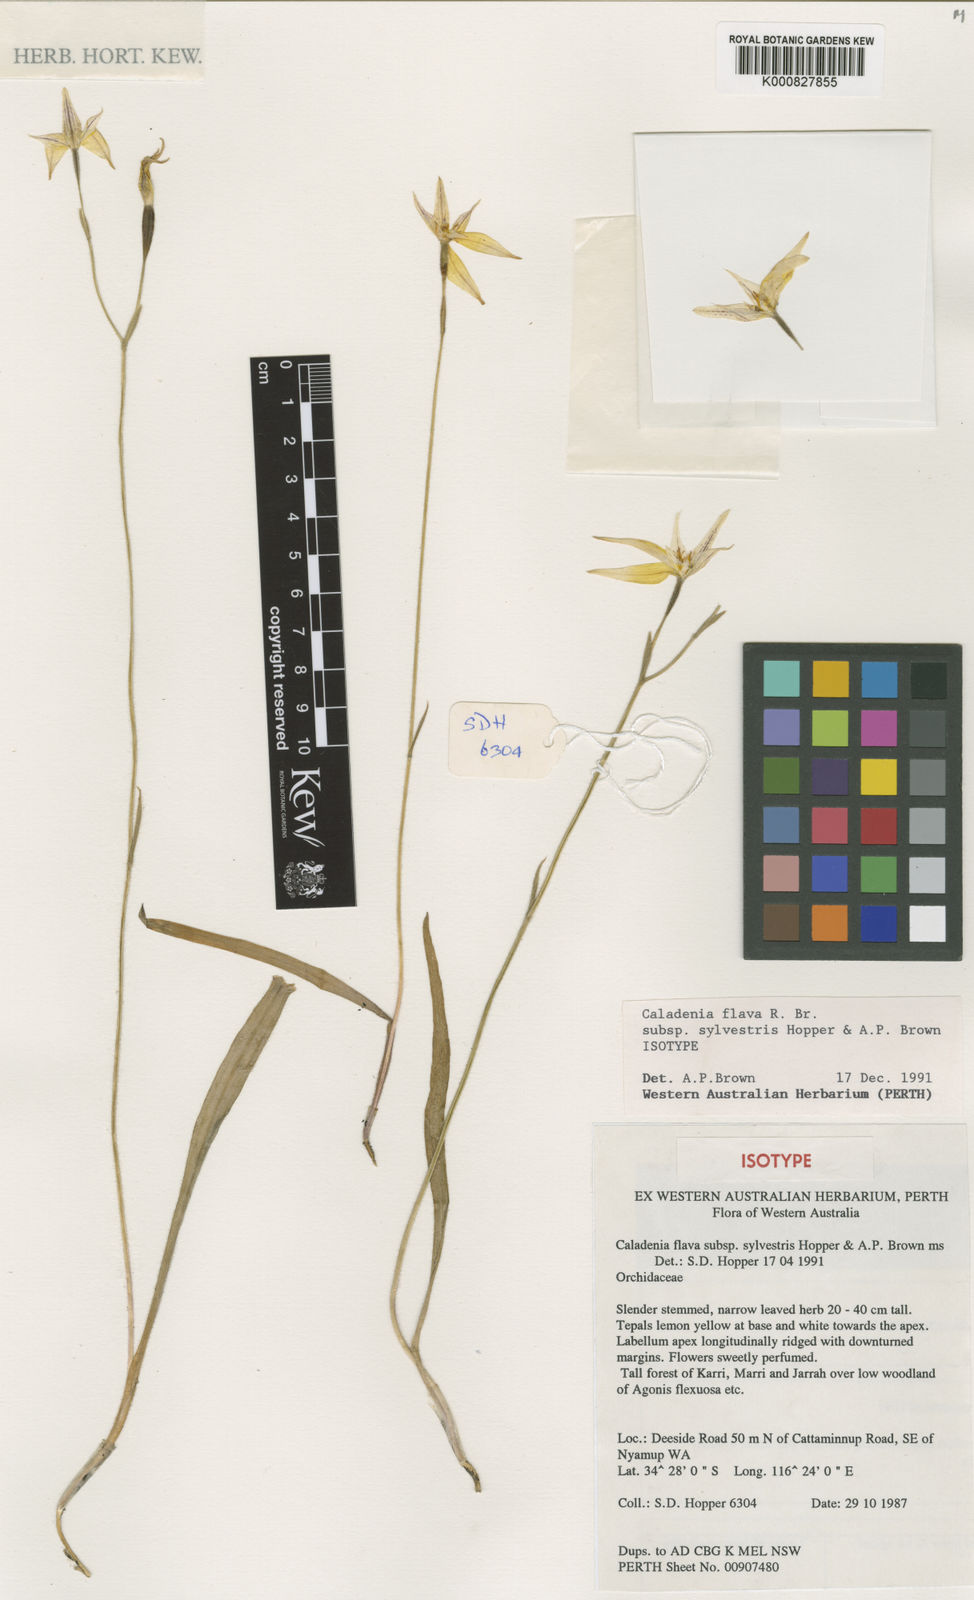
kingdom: Plantae
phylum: Tracheophyta
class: Liliopsida
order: Asparagales
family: Orchidaceae
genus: Caladenia
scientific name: Caladenia flava
